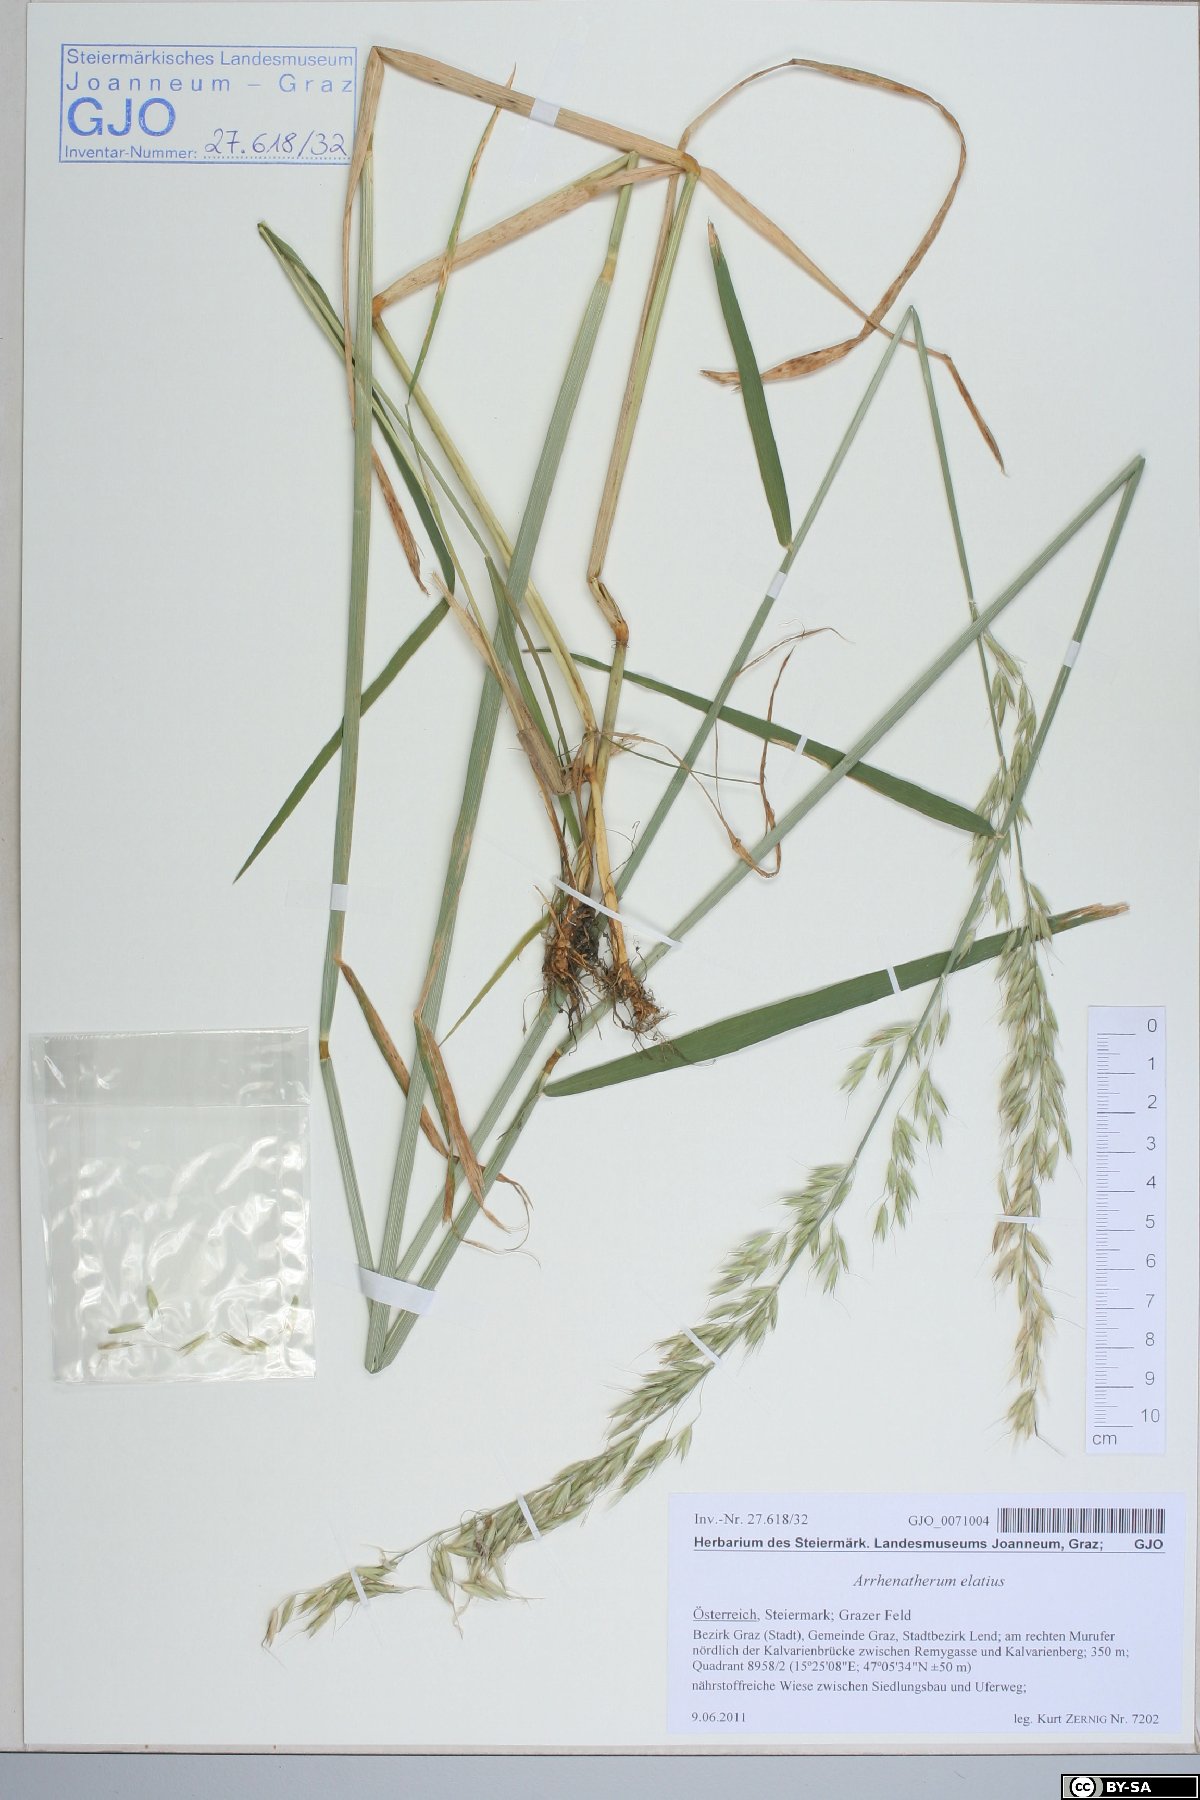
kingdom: Plantae
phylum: Tracheophyta
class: Liliopsida
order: Poales
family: Poaceae
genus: Arrhenatherum
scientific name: Arrhenatherum elatius
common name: Tall oatgrass
